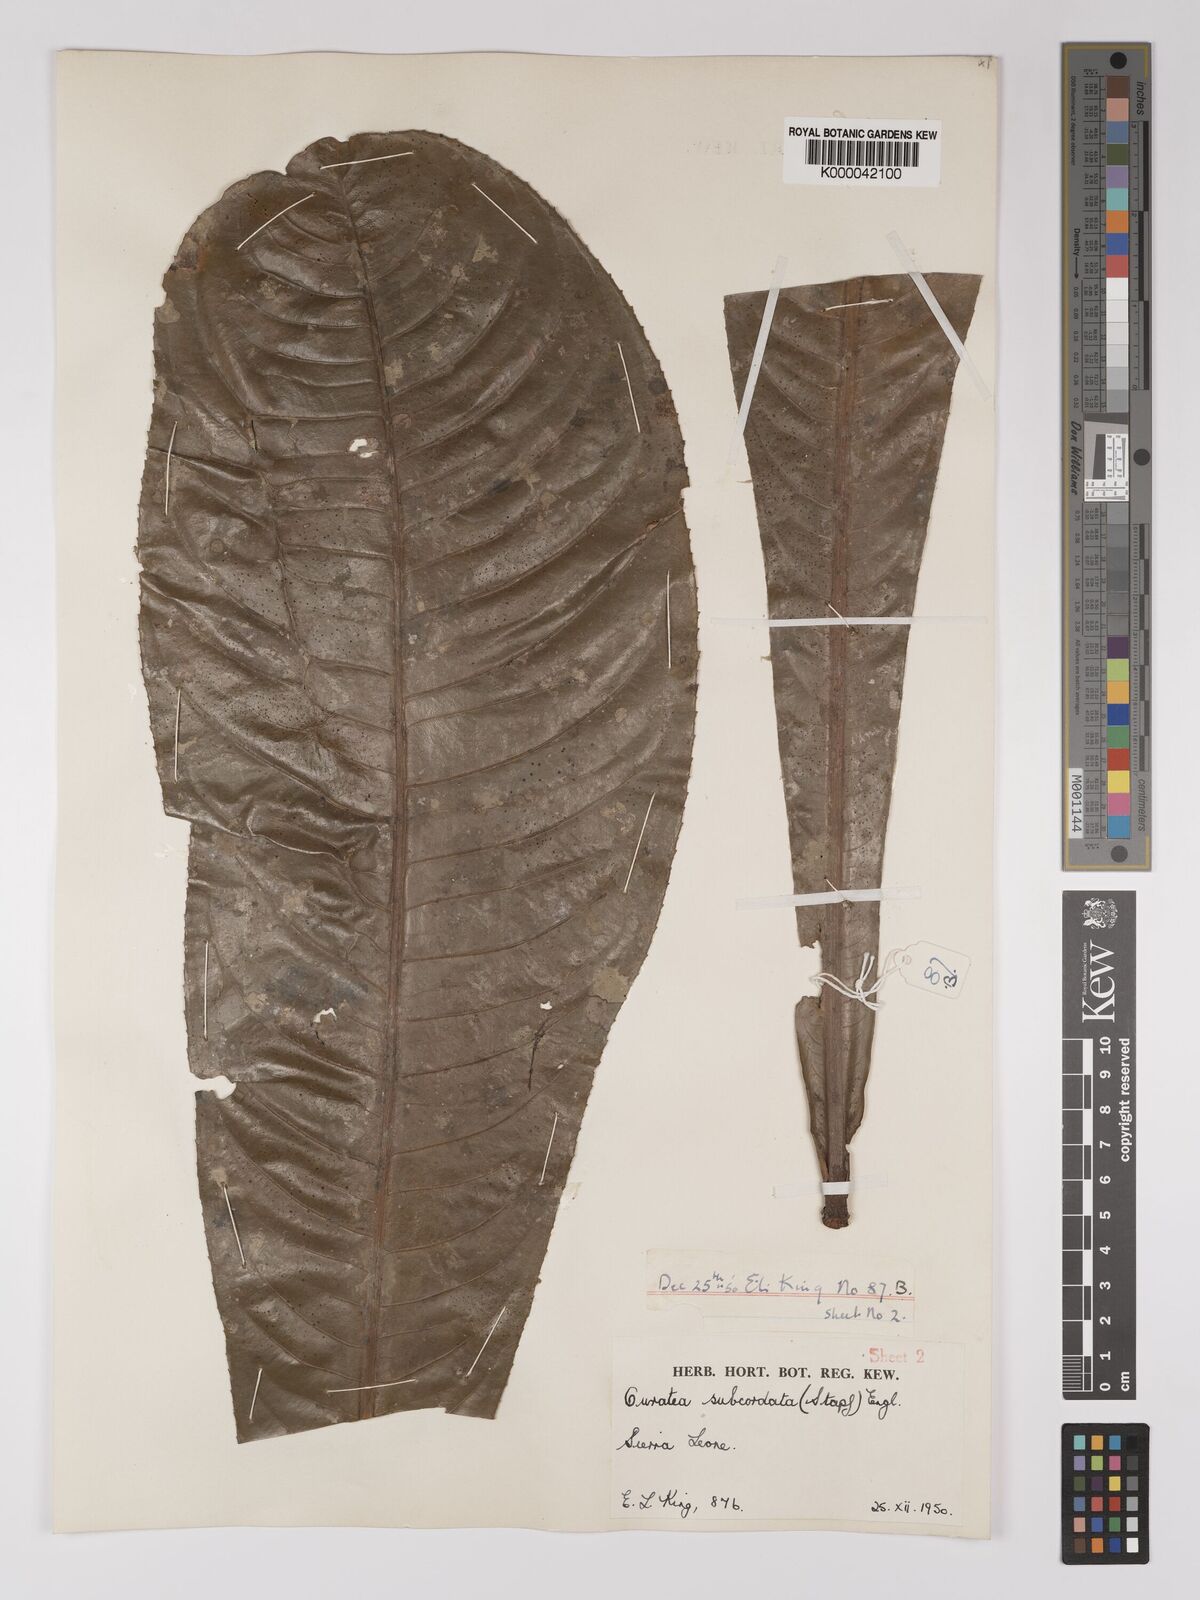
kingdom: Plantae
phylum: Tracheophyta
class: Magnoliopsida
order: Malpighiales
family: Ochnaceae
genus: Campylospermum
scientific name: Campylospermum subcordatum
